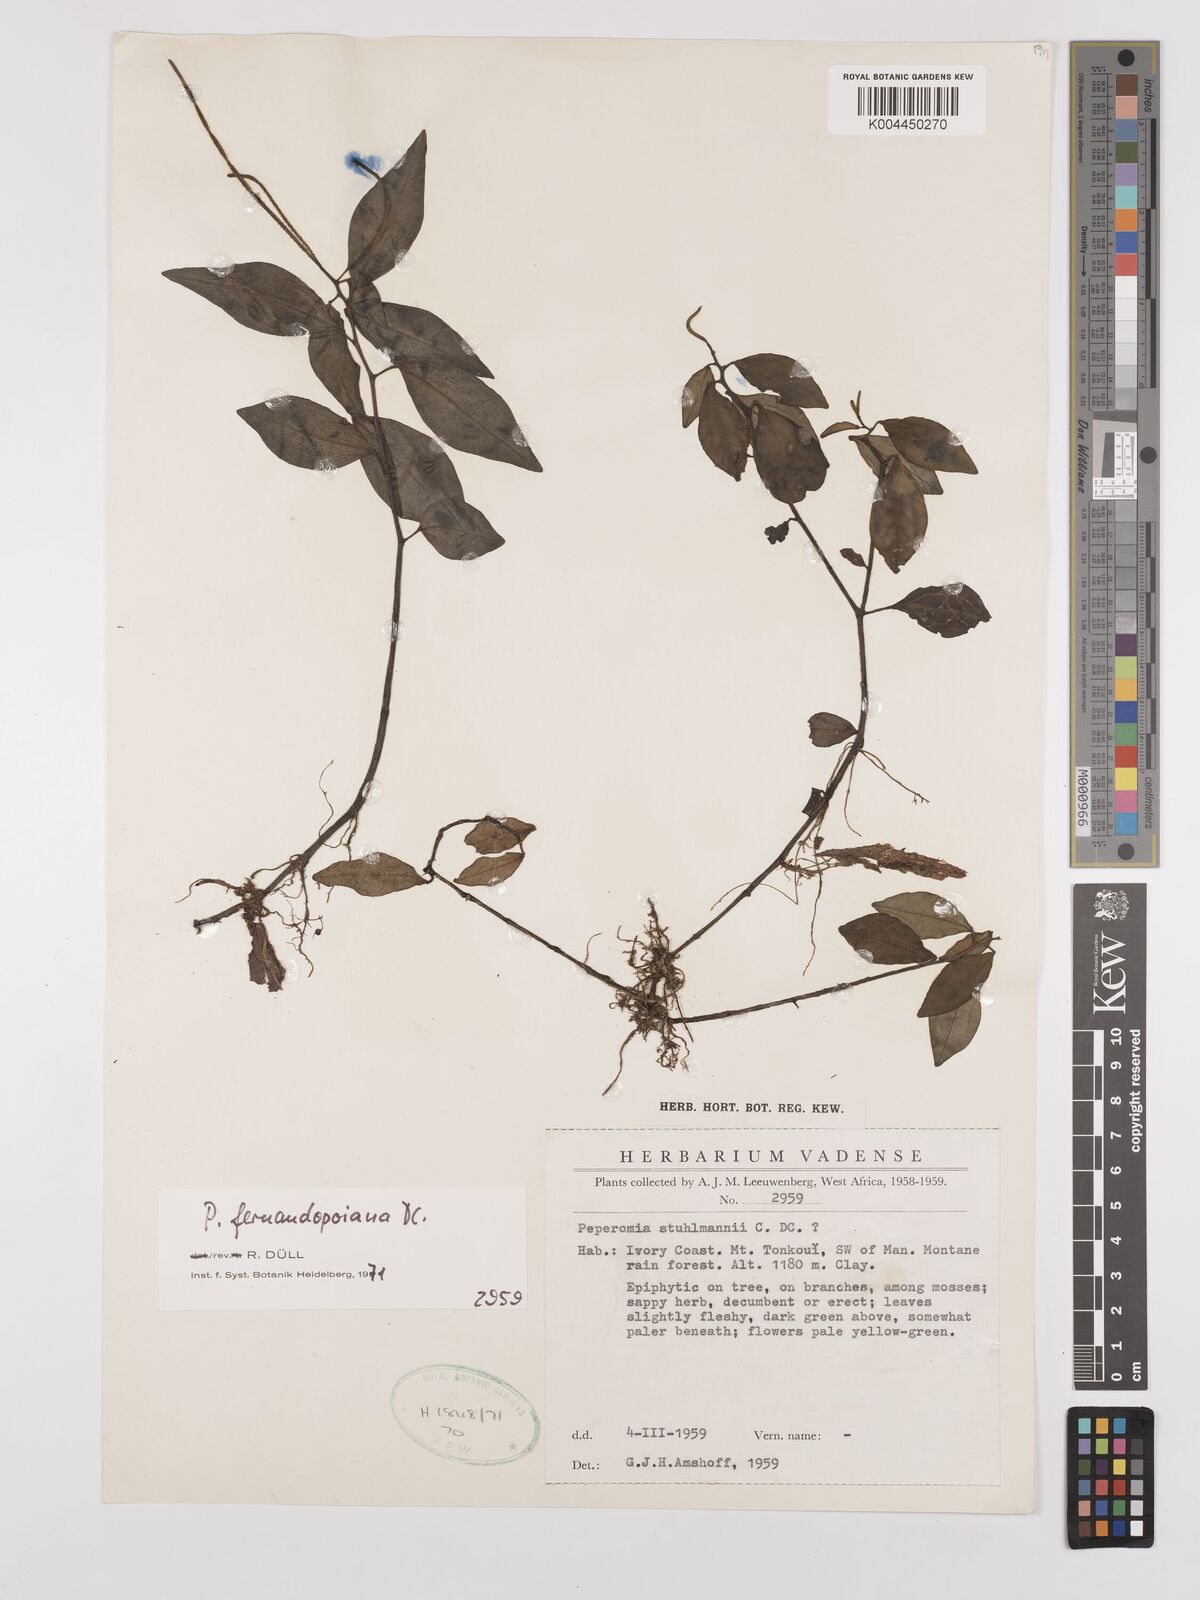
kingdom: Plantae
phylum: Tracheophyta
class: Magnoliopsida
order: Piperales
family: Piperaceae
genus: Peperomia
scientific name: Peperomia fernandeziana
